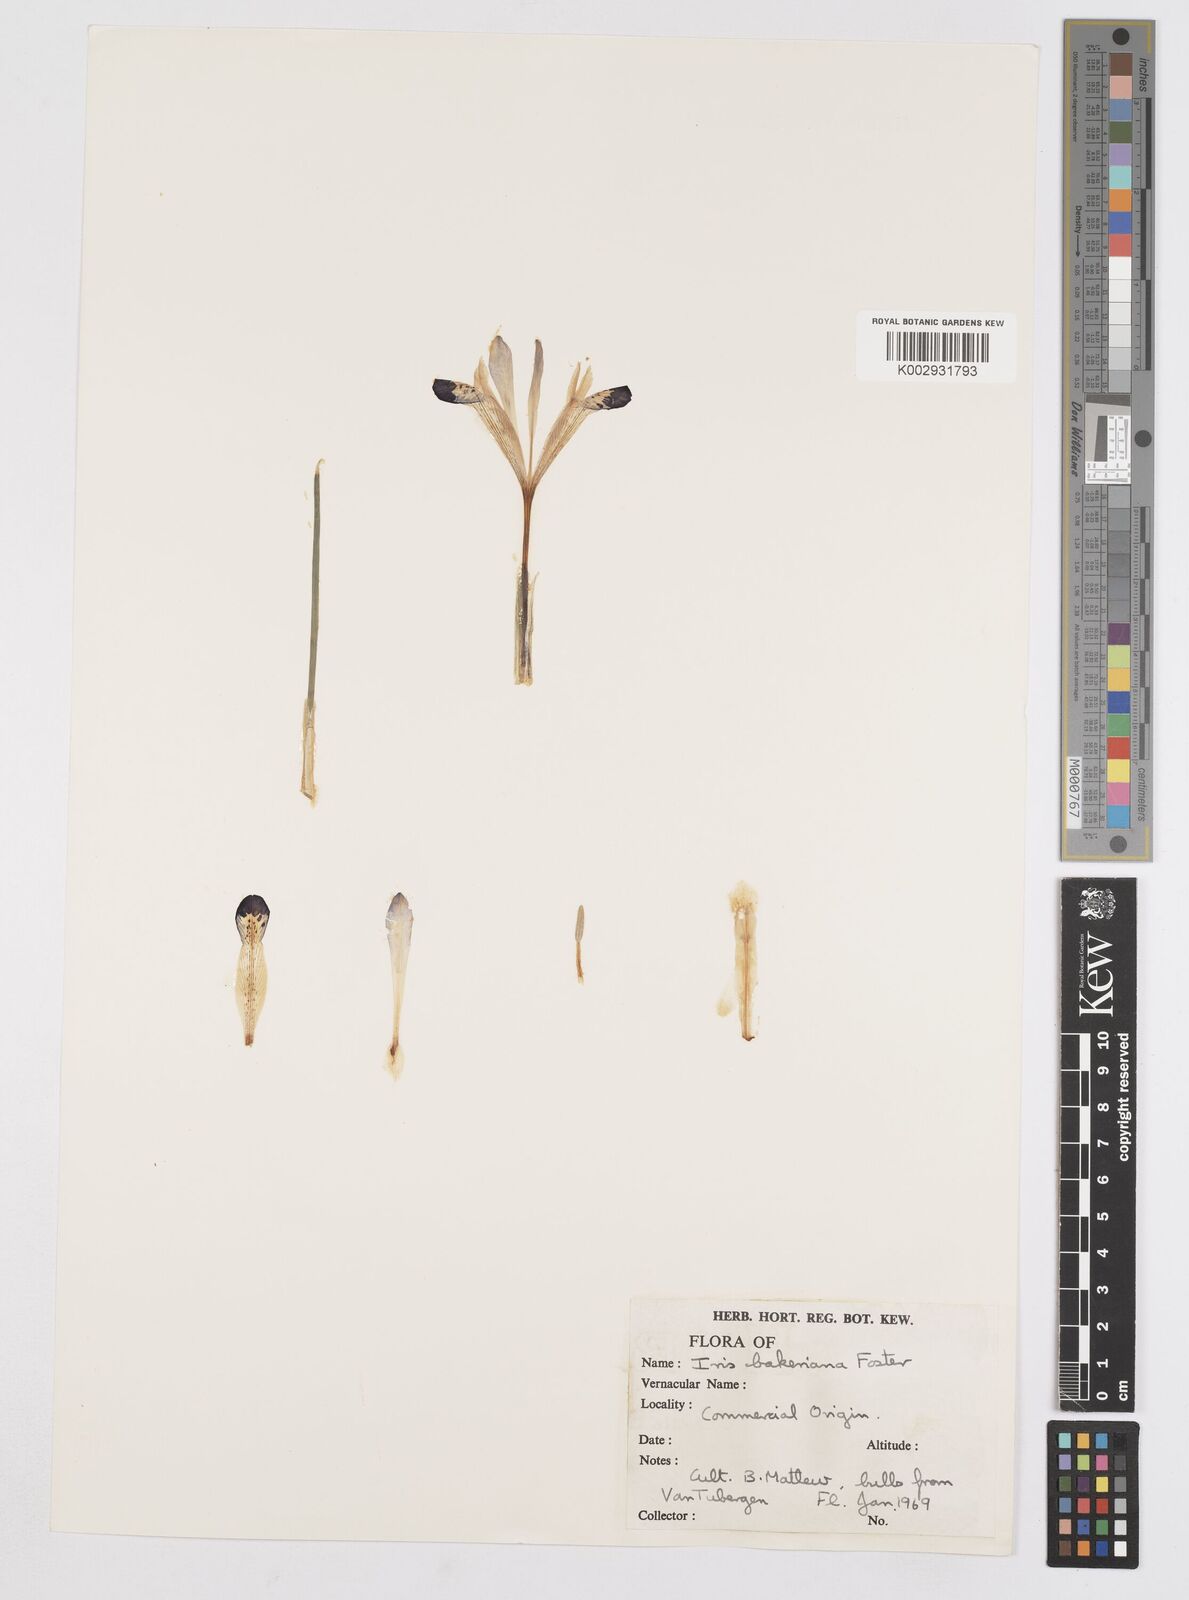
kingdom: Plantae
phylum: Tracheophyta
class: Liliopsida
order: Asparagales
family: Iridaceae
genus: Iris
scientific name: Iris reticulata
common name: Netted iris
